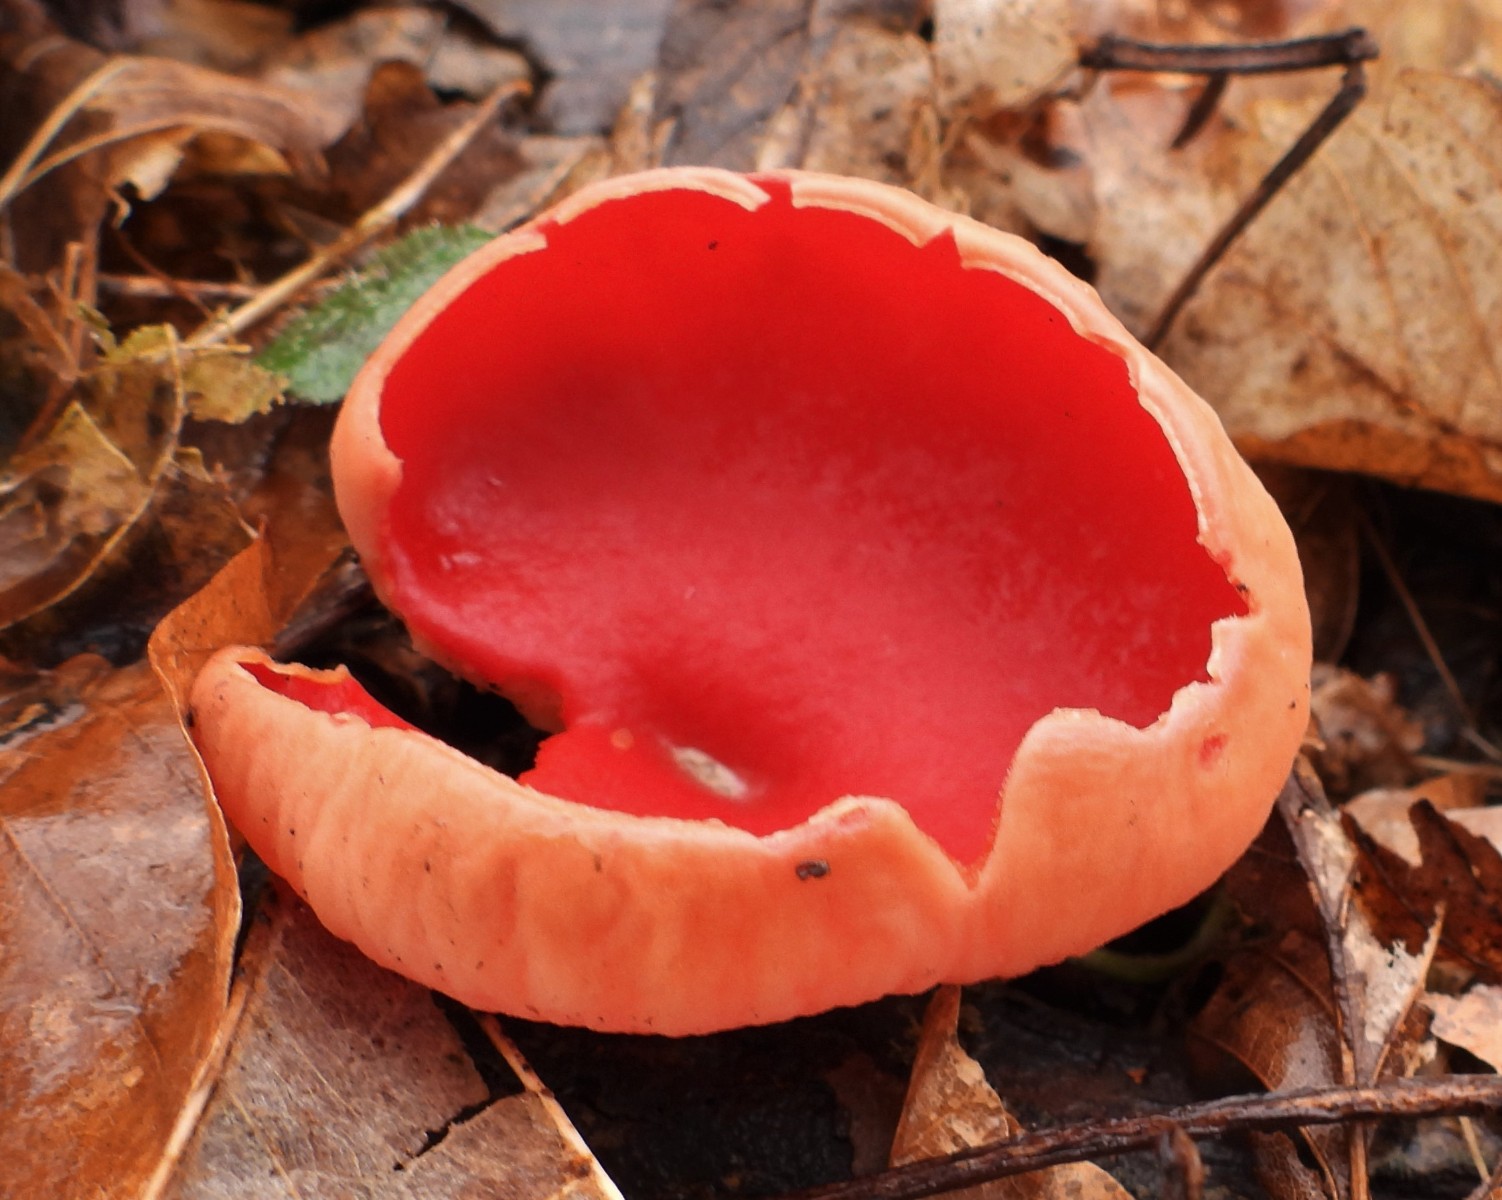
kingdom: Fungi
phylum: Ascomycota
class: Pezizomycetes
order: Pezizales
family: Sarcoscyphaceae
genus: Sarcoscypha
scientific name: Sarcoscypha austriaca
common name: krølhåret pragtbæger
